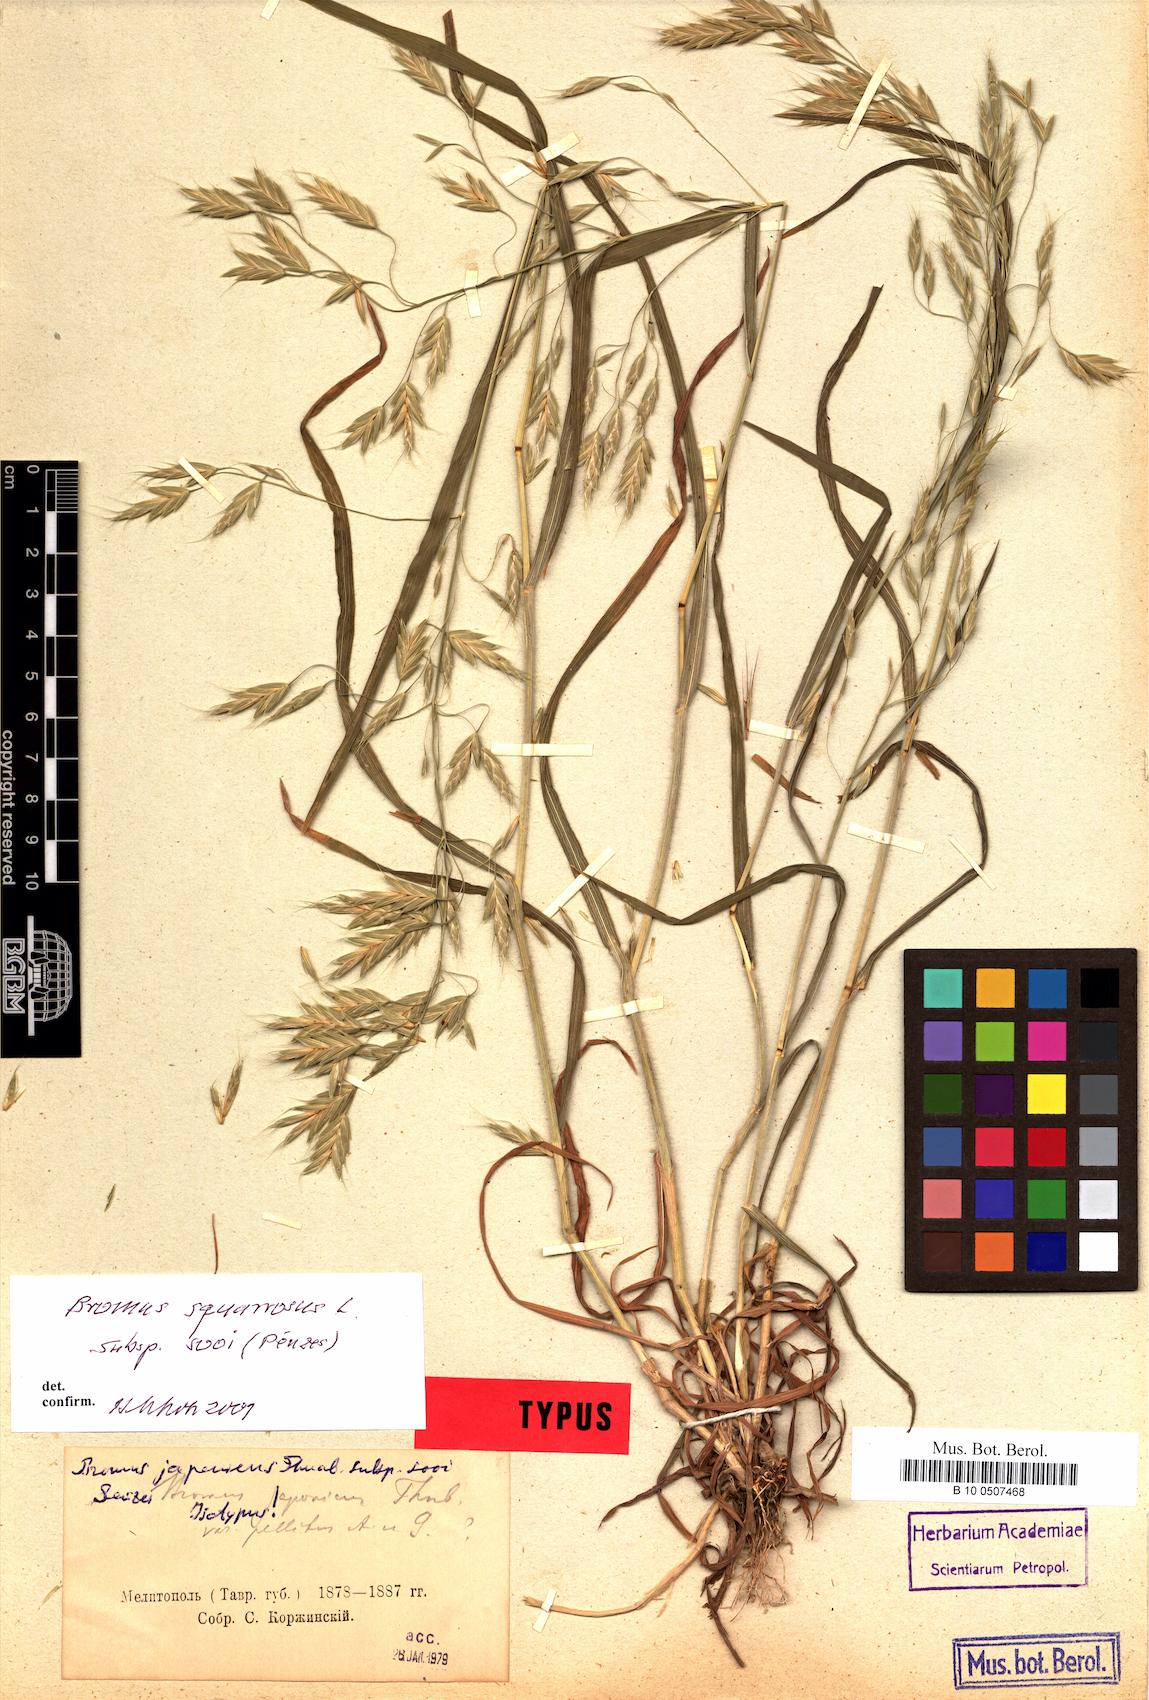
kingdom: Plantae
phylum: Tracheophyta
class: Liliopsida
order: Poales
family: Poaceae
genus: Bromus
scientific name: Bromus japonicus
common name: Japanese brome
